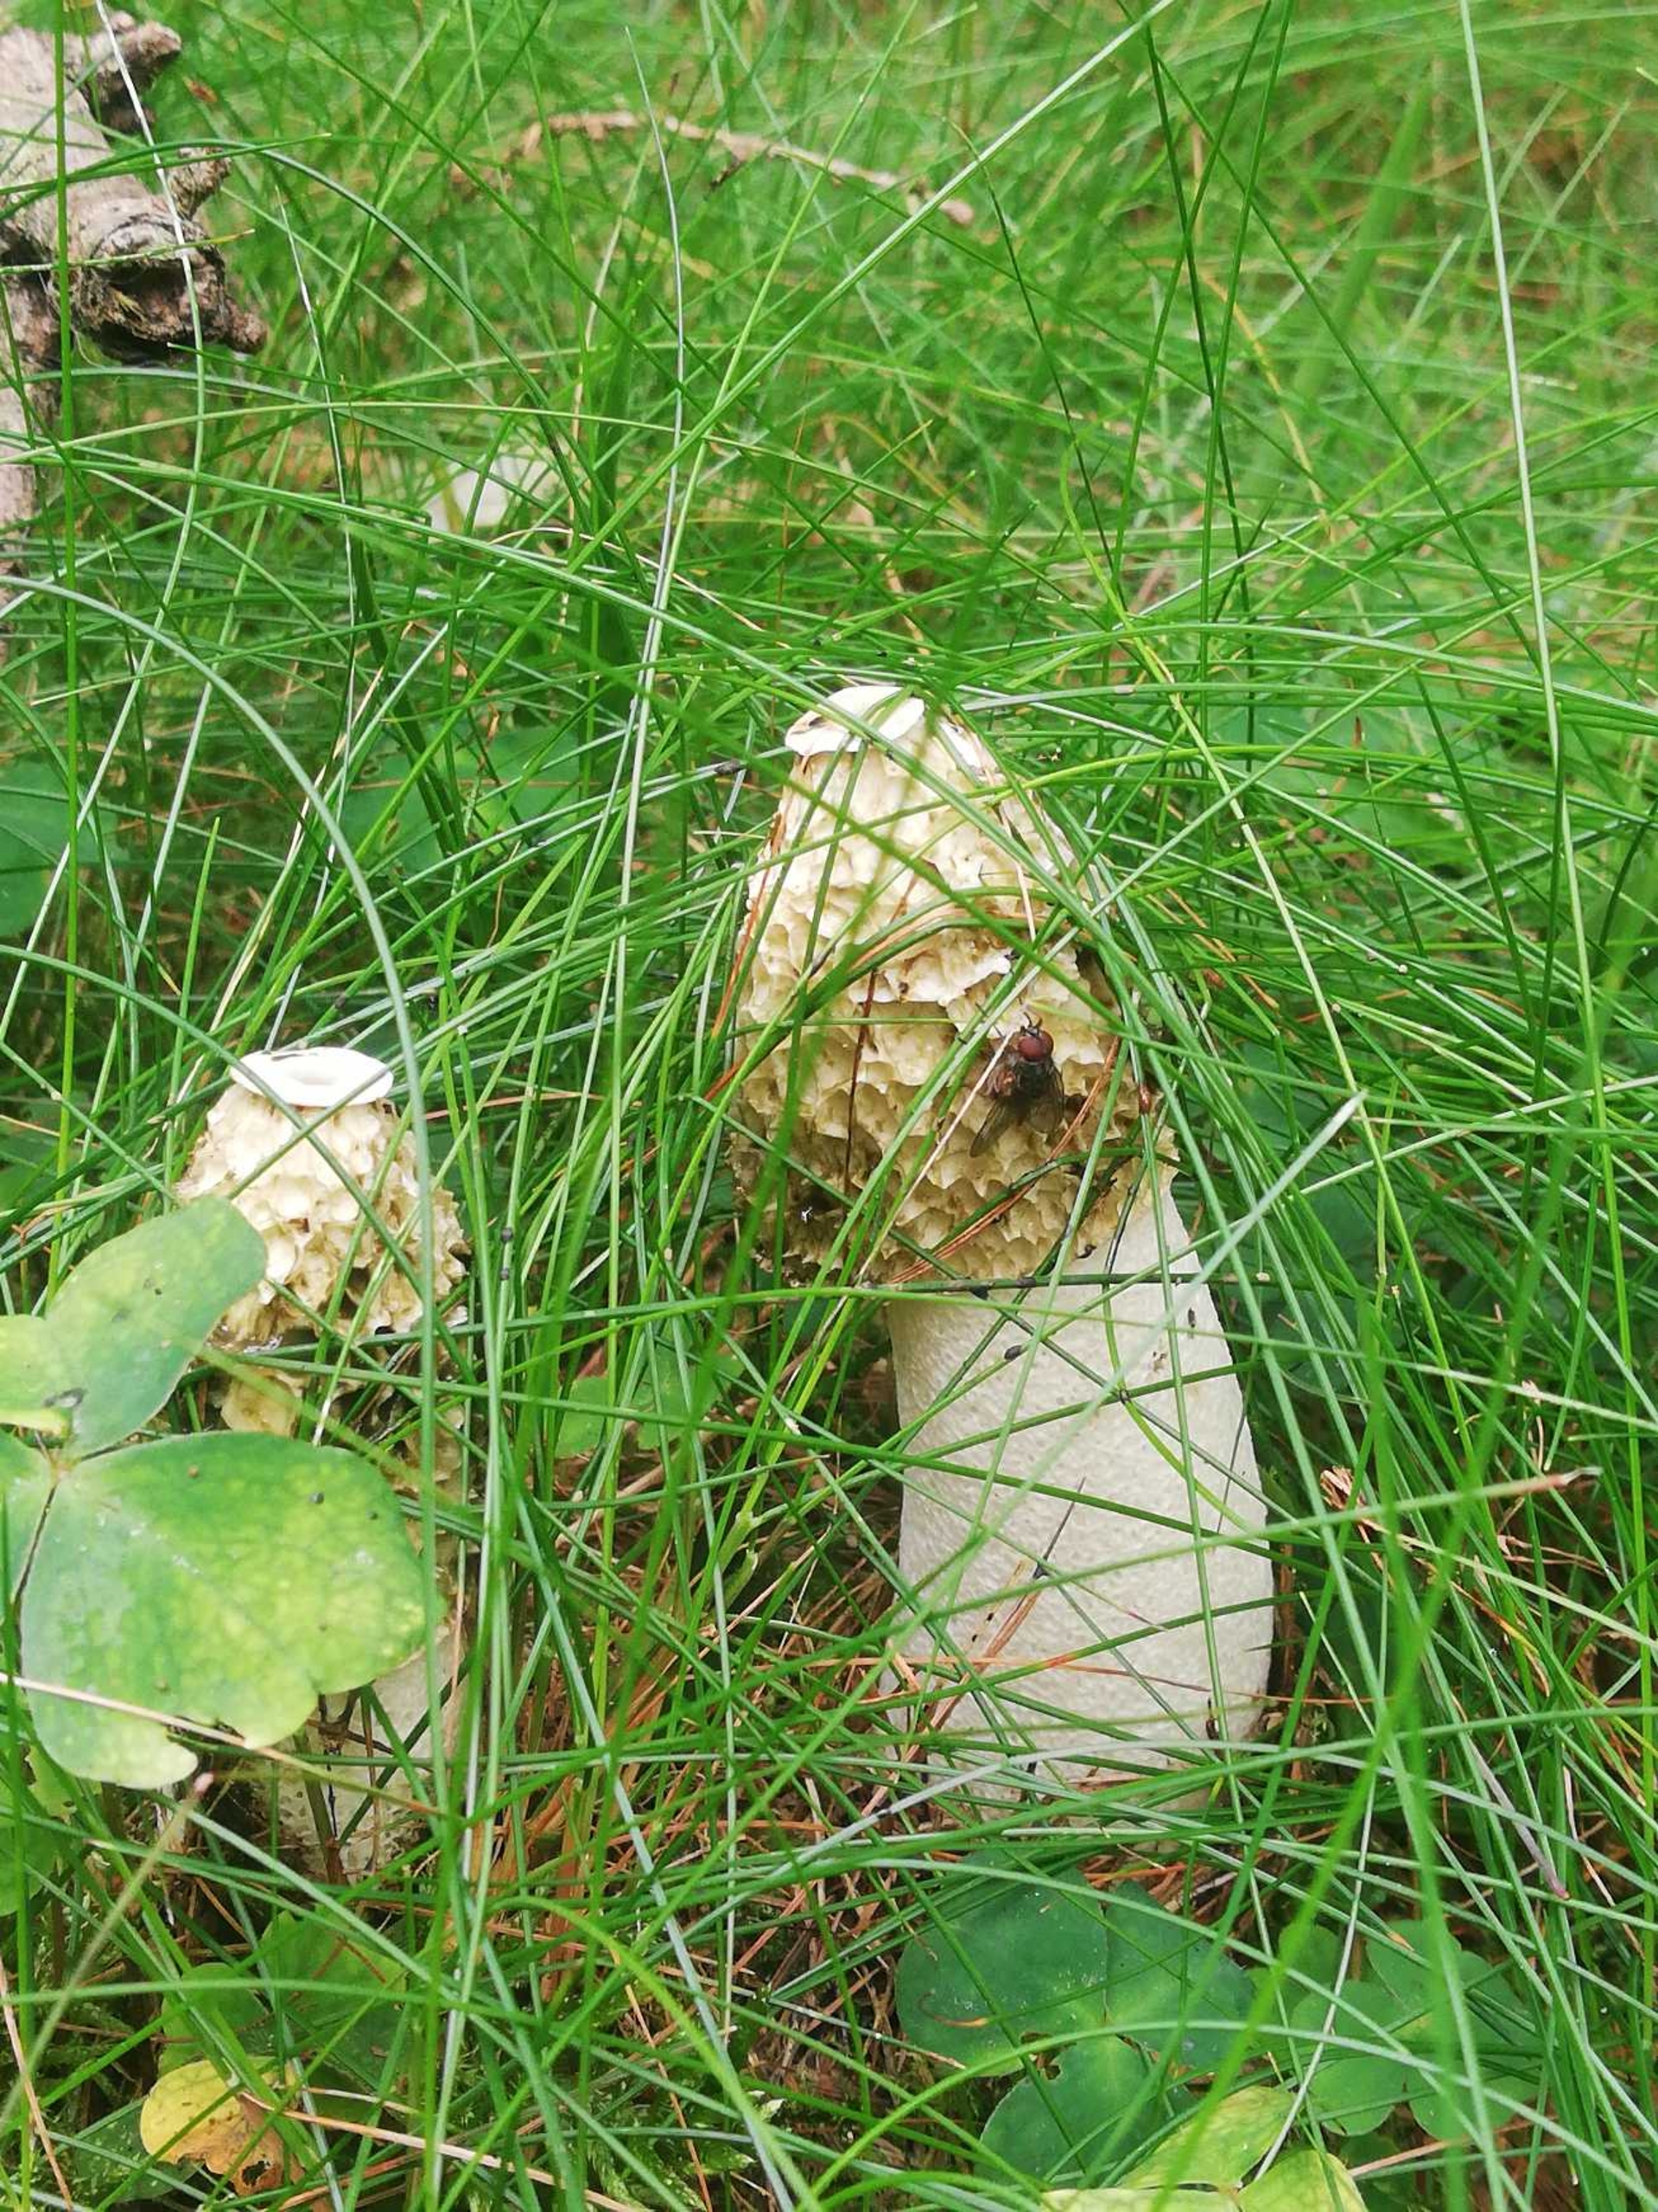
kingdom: Fungi
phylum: Basidiomycota
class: Agaricomycetes
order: Phallales
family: Phallaceae
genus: Phallus
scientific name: Phallus impudicus
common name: Almindelig stinksvamp
